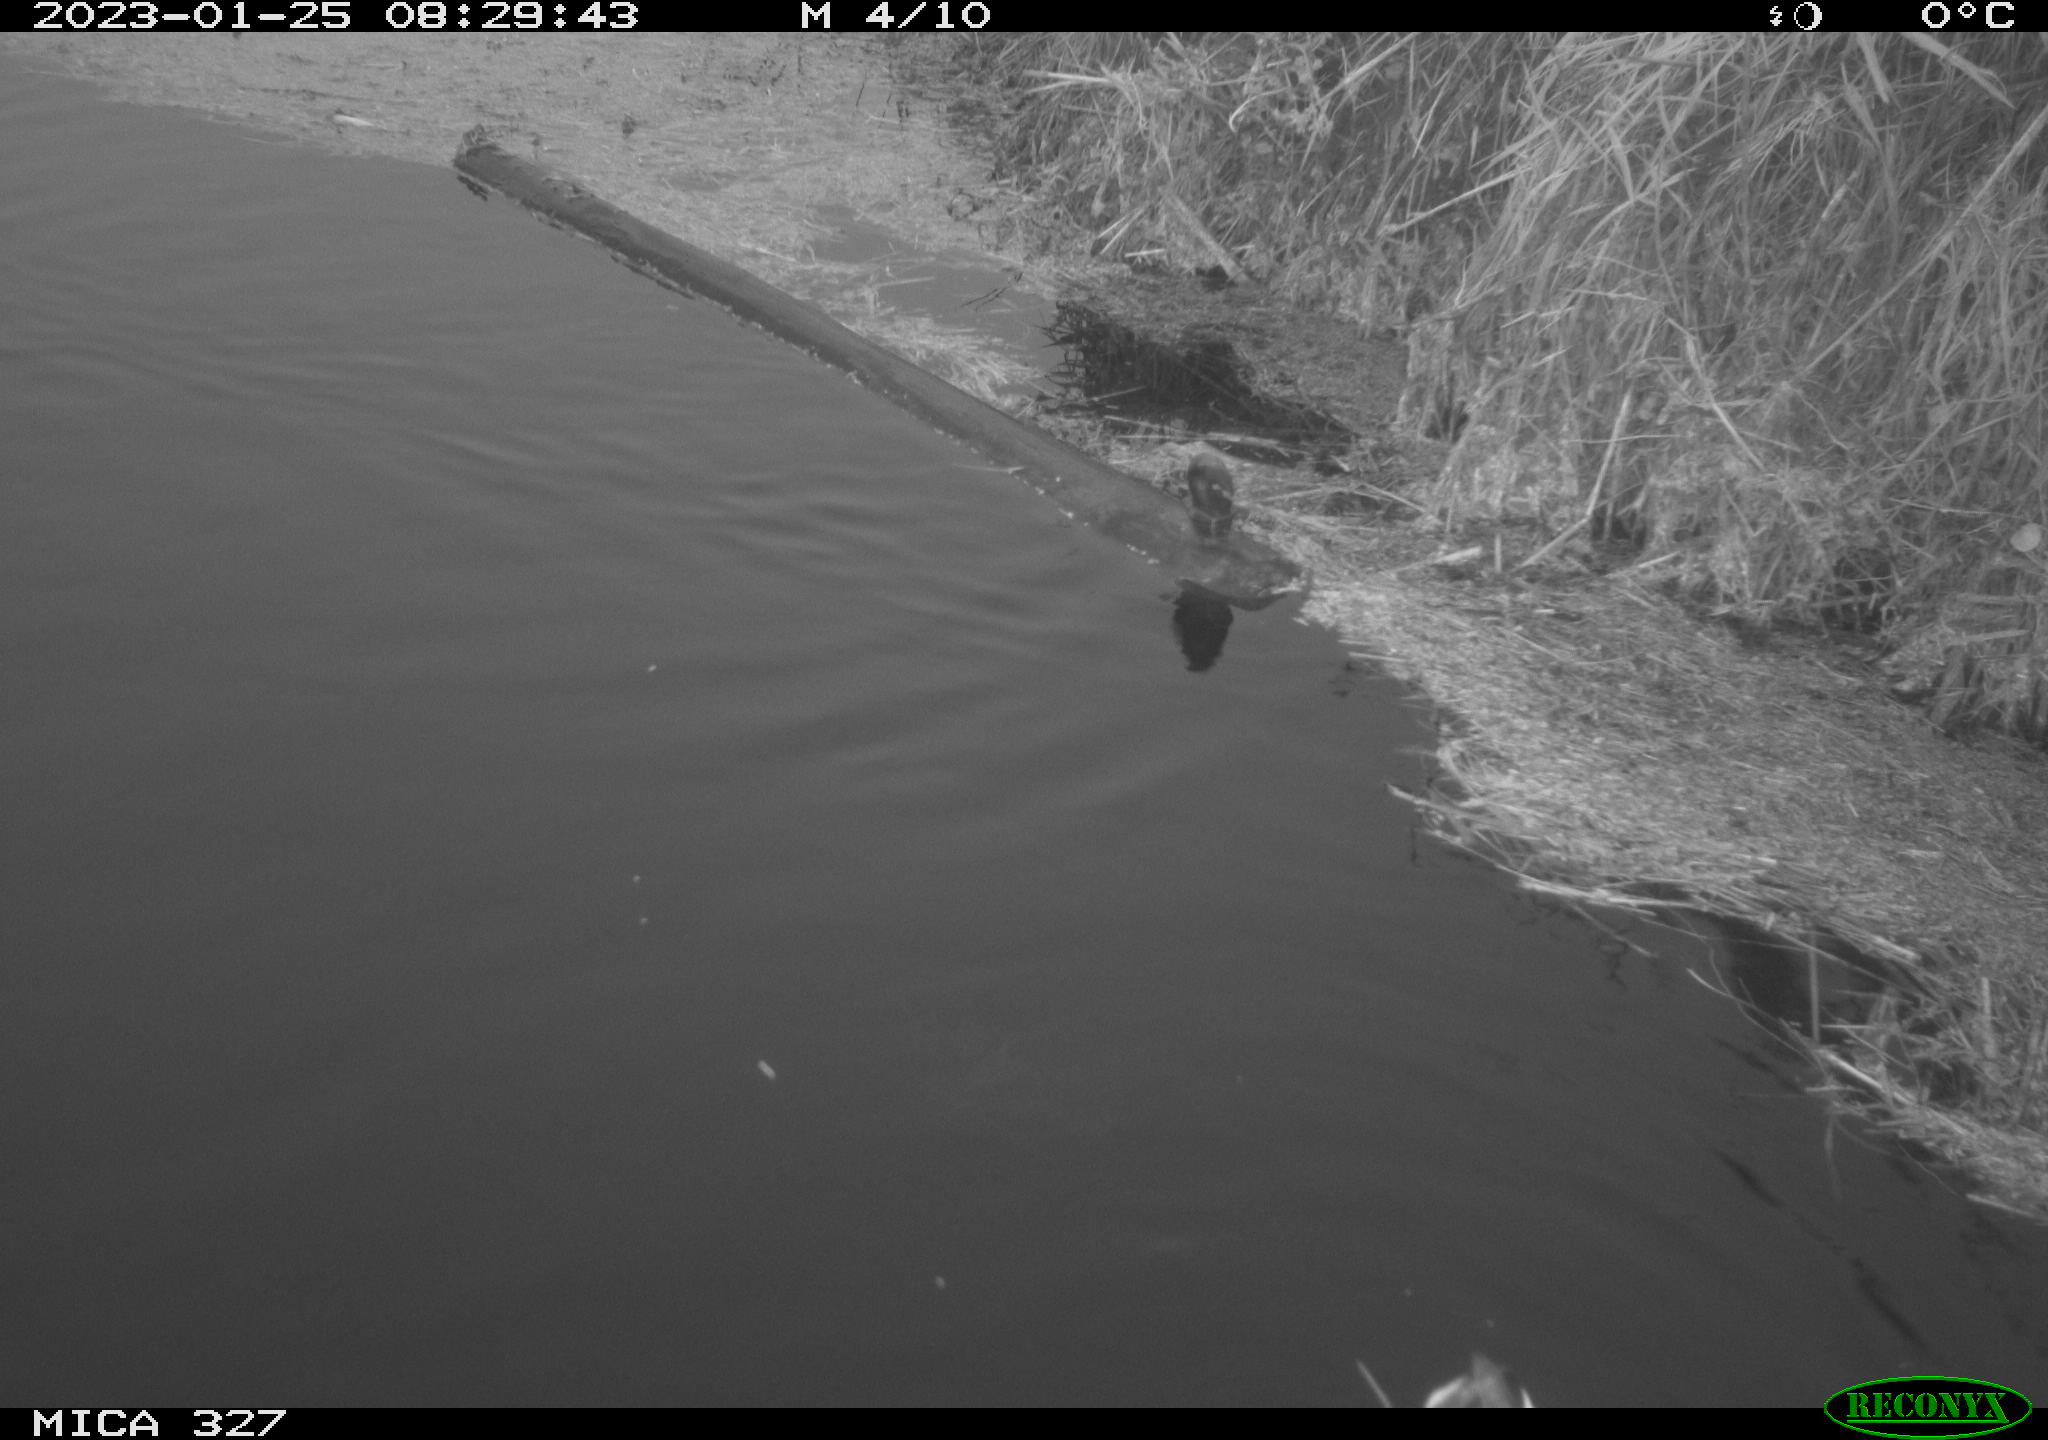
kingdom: Animalia
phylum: Chordata
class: Aves
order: Gruiformes
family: Rallidae
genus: Gallinula
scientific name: Gallinula chloropus
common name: Common moorhen
